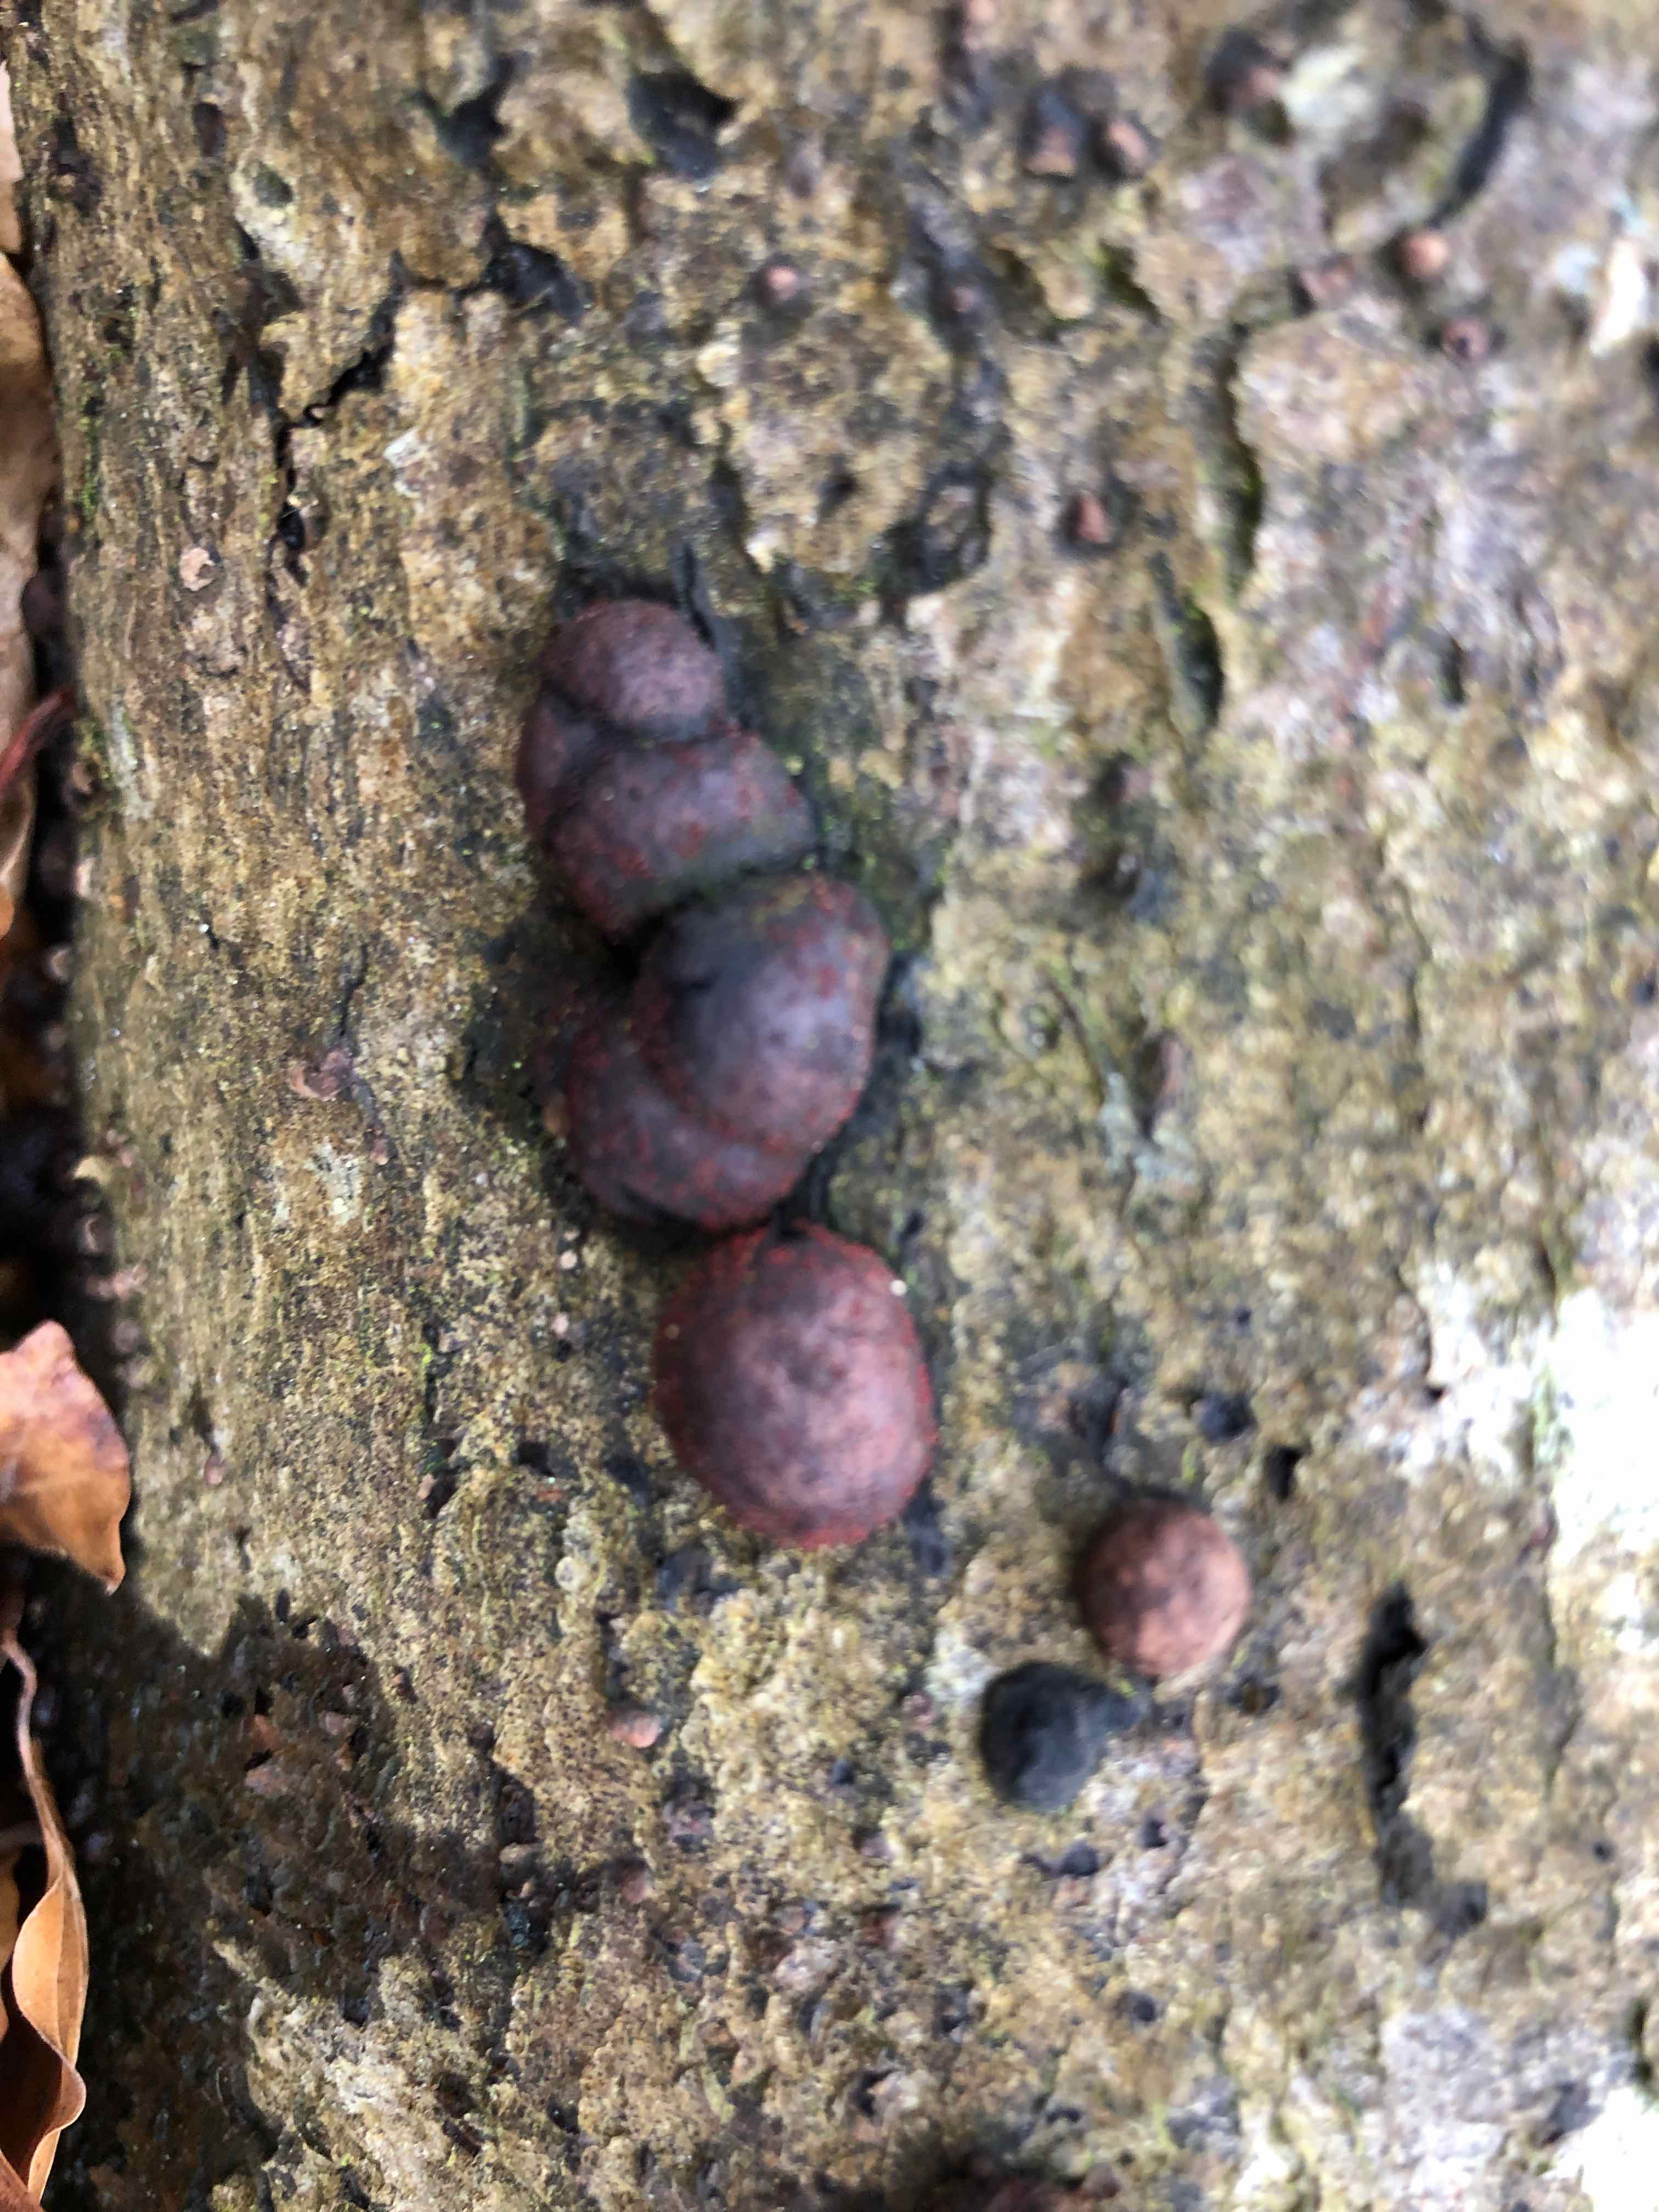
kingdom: Fungi
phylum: Ascomycota
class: Sordariomycetes
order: Hypocreales
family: Nectriaceae
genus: Cosmospora
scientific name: Cosmospora arxii
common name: kuljordbær-cinnobersvamp
